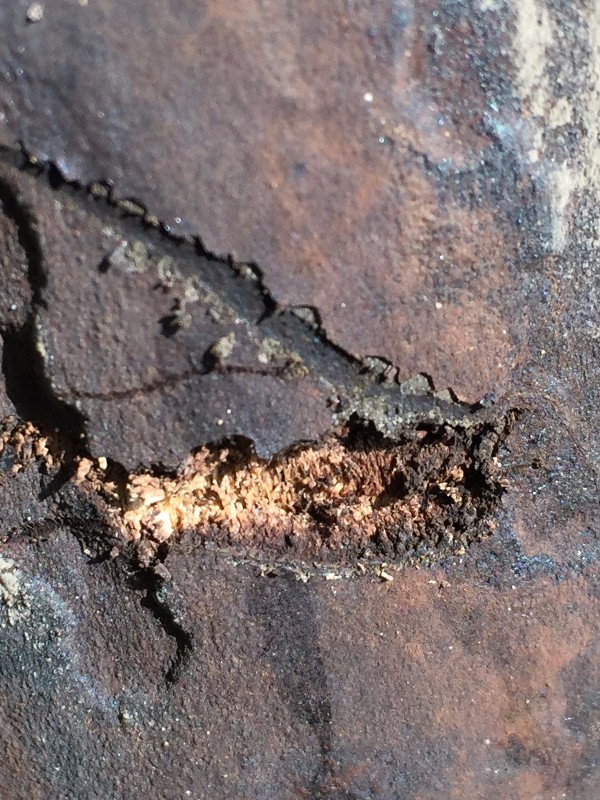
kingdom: Fungi
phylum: Ascomycota
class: Sordariomycetes
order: Xylariales
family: Hypoxylaceae
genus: Hypoxylon
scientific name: Hypoxylon macrocarpum
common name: skorpe-kulbær
